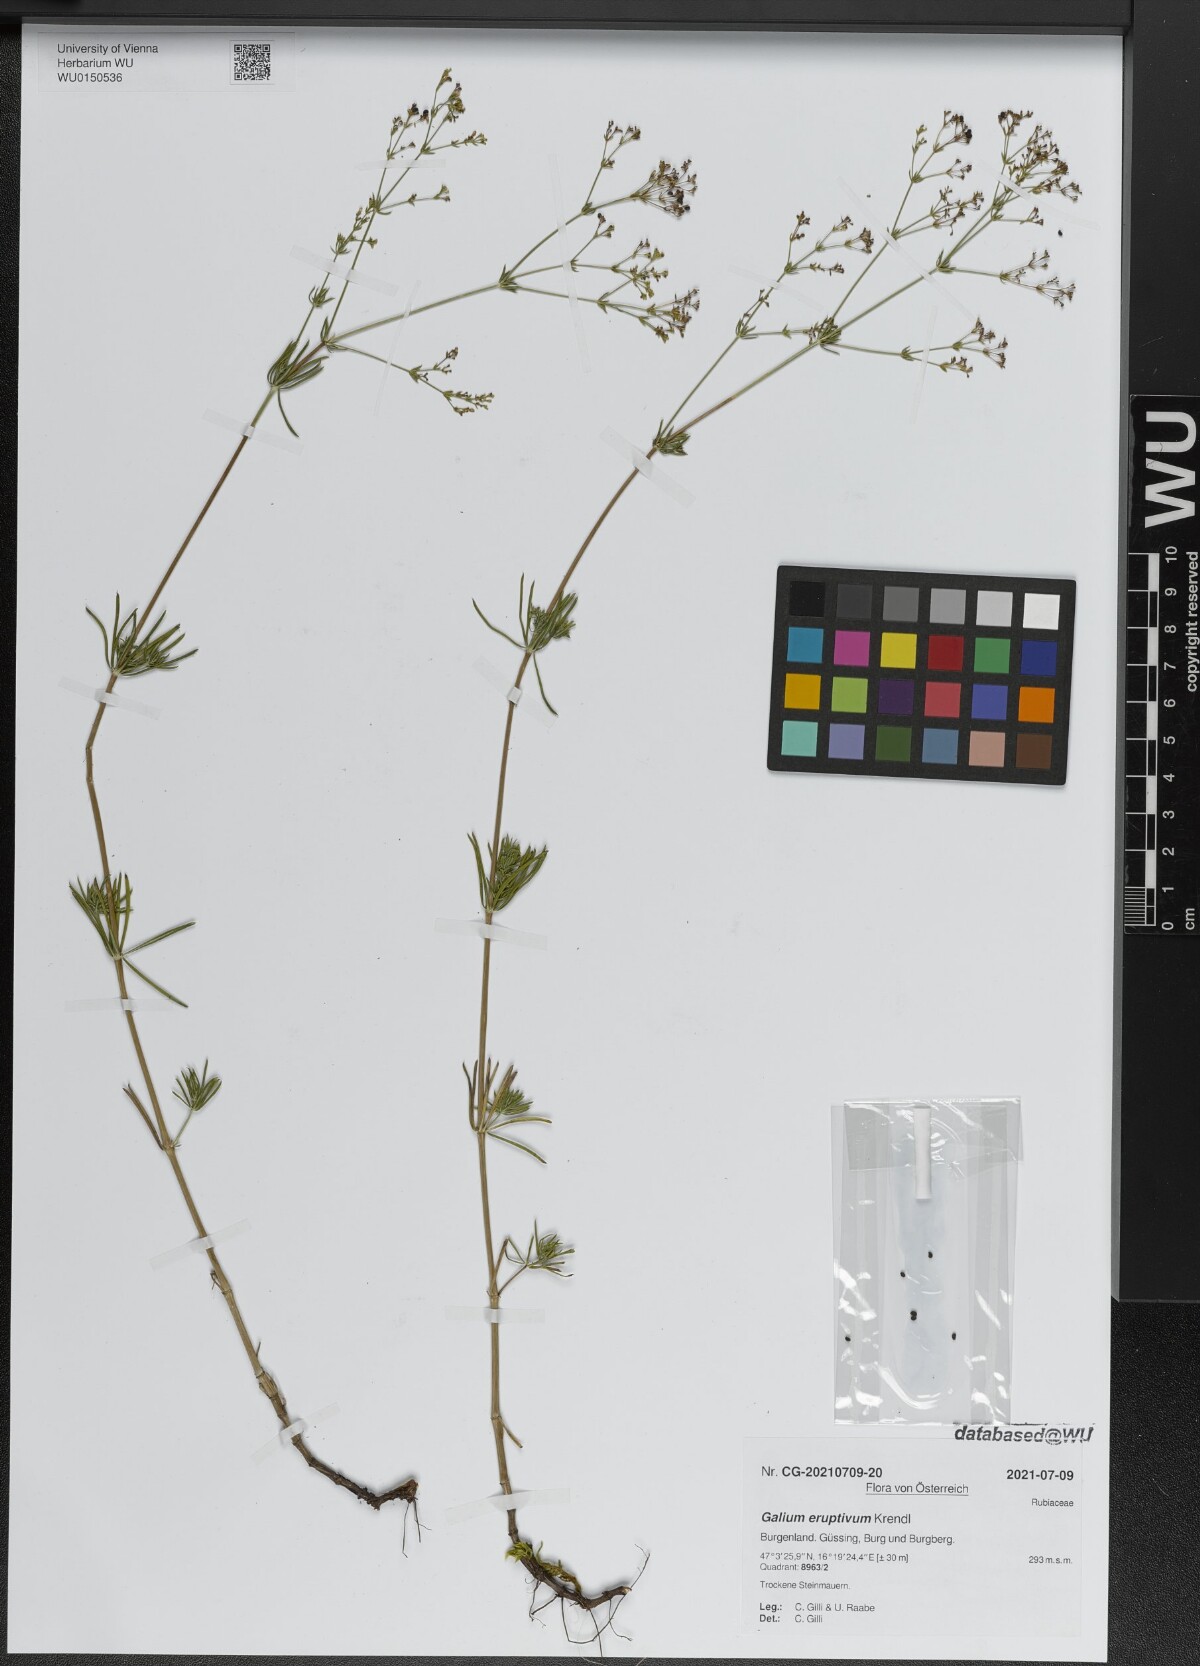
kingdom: Plantae
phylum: Tracheophyta
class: Magnoliopsida
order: Gentianales
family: Rubiaceae
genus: Galium
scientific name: Galium eruptivum
